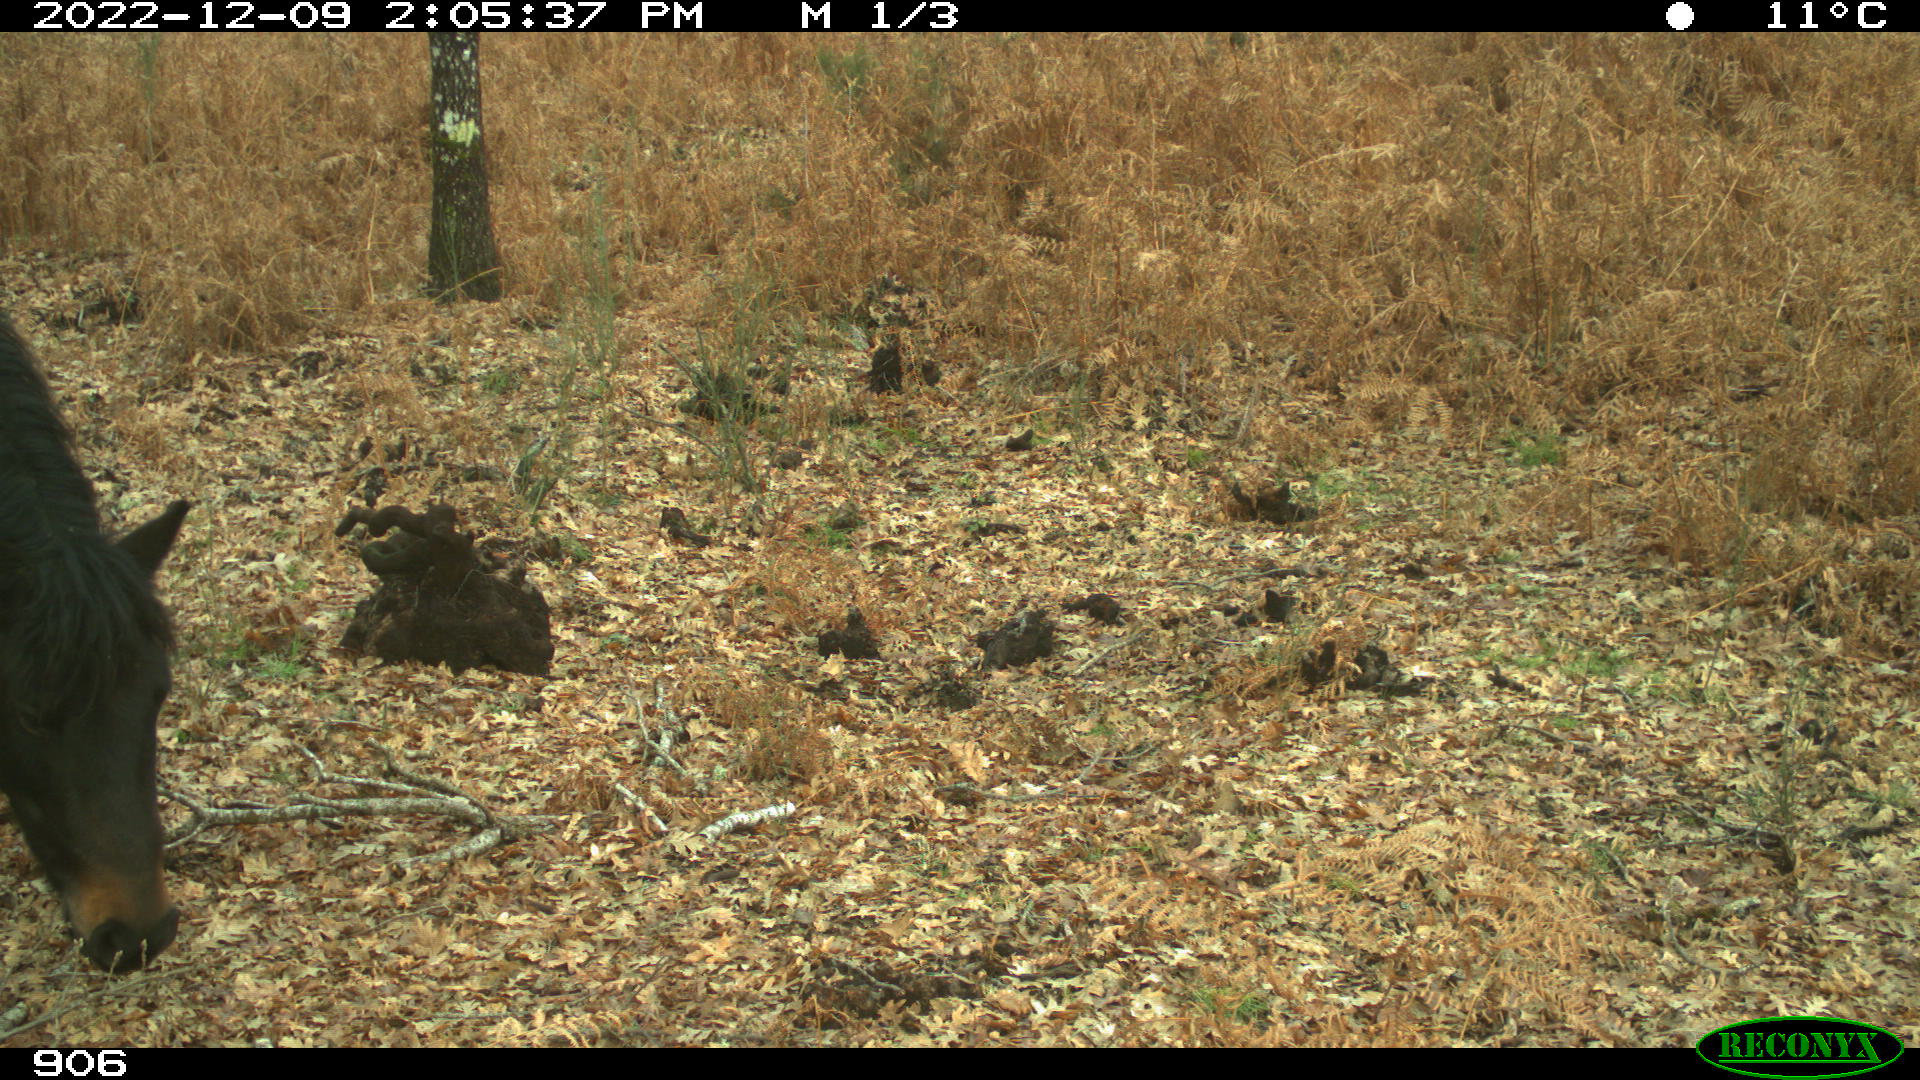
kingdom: Animalia
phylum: Chordata
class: Mammalia
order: Perissodactyla
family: Equidae
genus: Equus
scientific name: Equus caballus
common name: Horse
